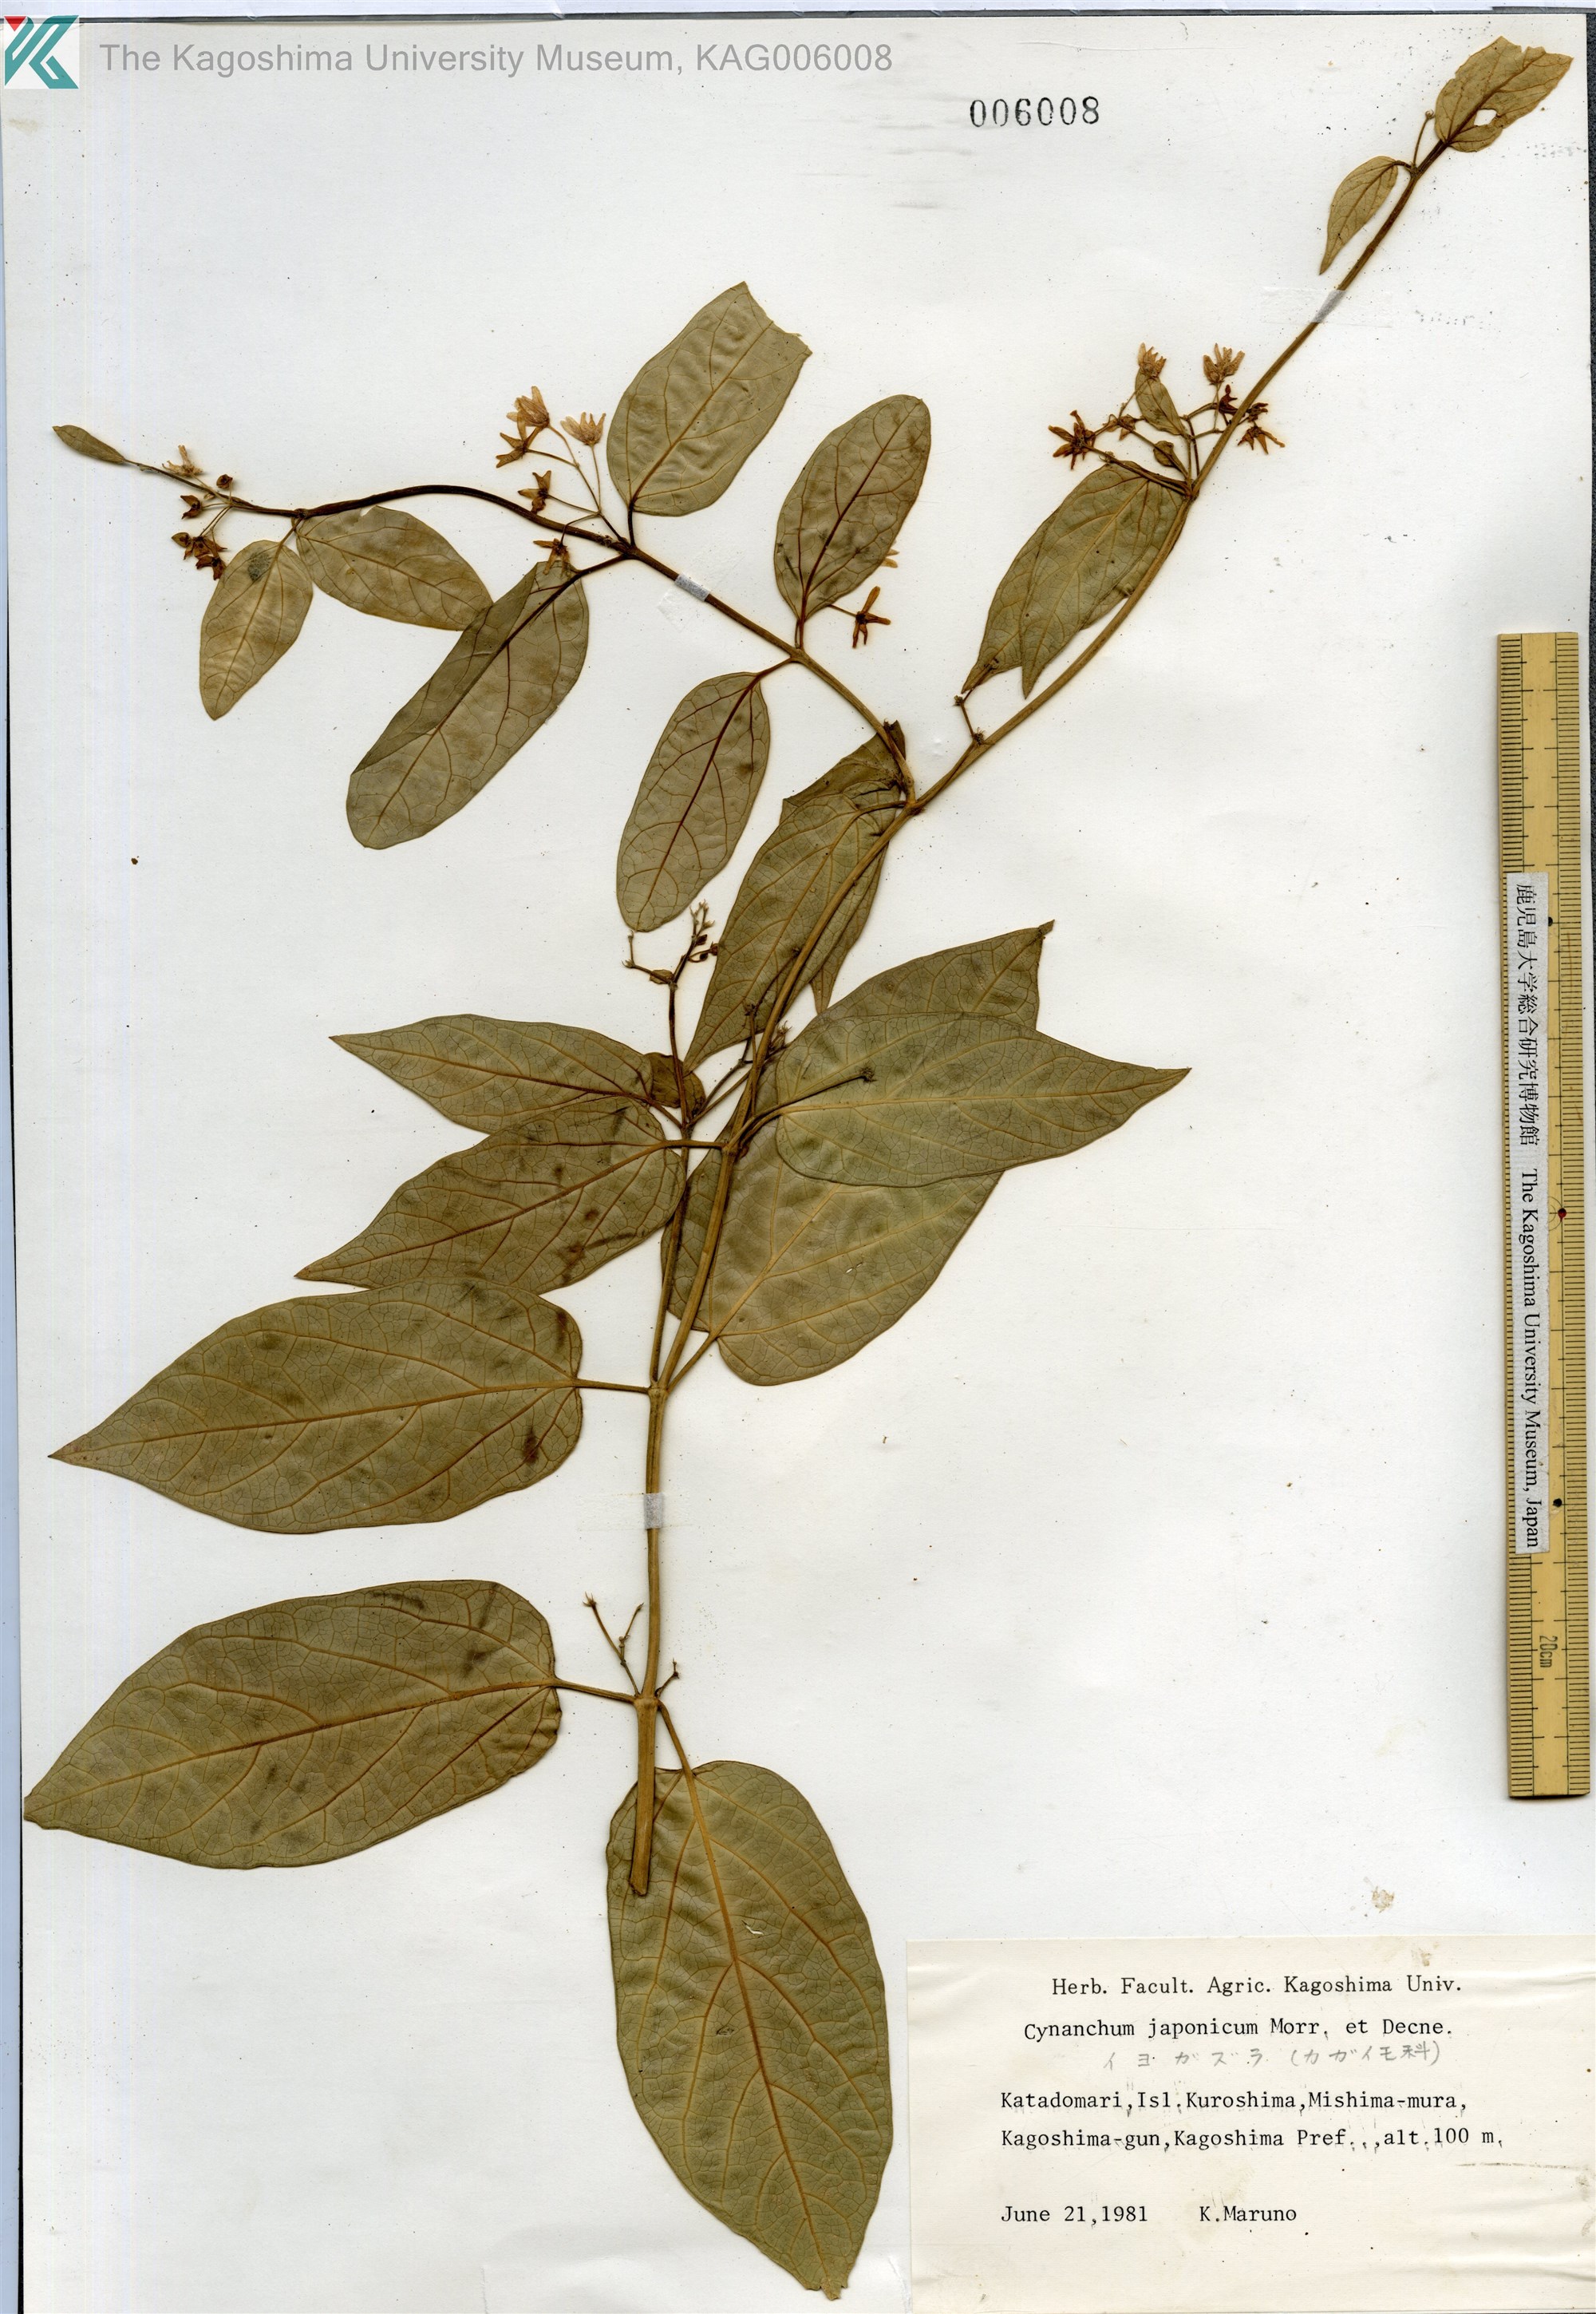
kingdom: Plantae
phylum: Tracheophyta
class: Magnoliopsida
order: Gentianales
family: Apocynaceae
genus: Vincetoxicum
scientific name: Vincetoxicum japonicum
